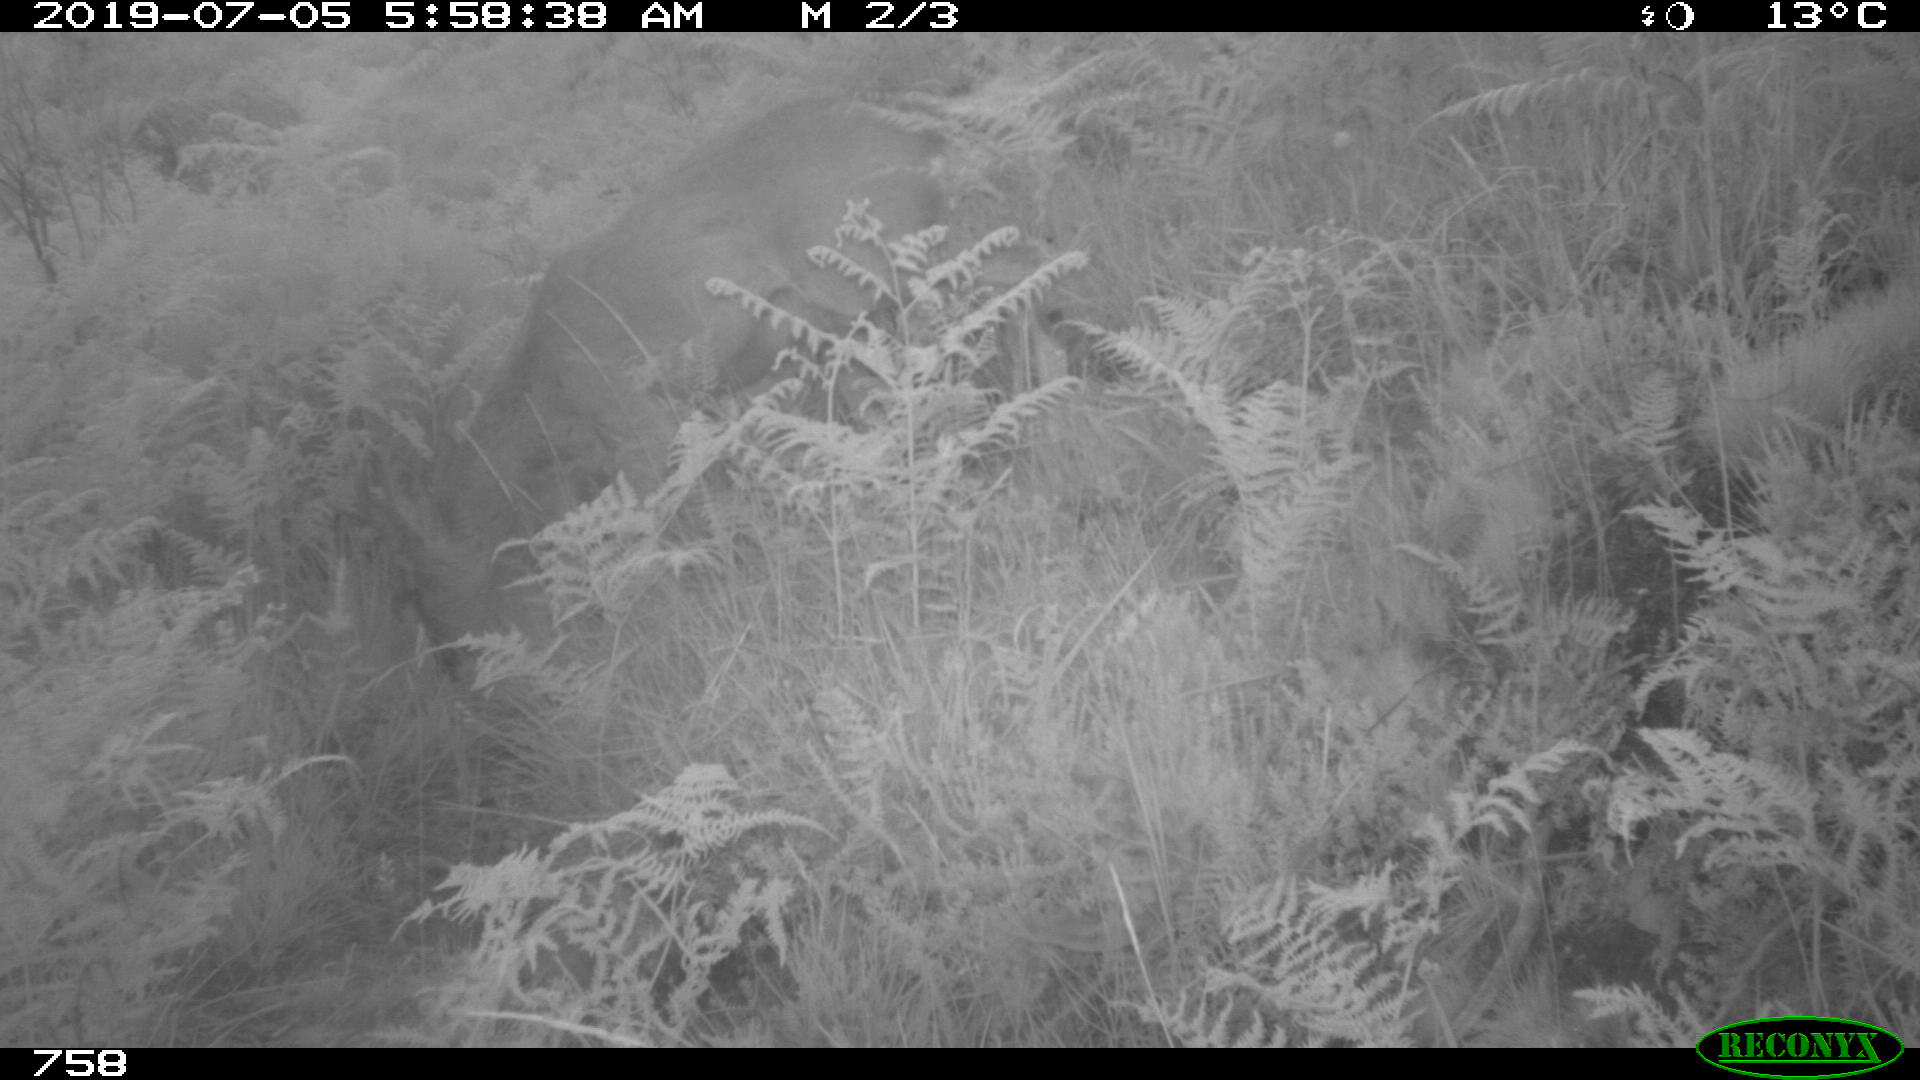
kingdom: Animalia
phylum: Chordata
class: Mammalia
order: Artiodactyla
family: Cervidae
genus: Capreolus
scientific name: Capreolus capreolus
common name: Western roe deer
